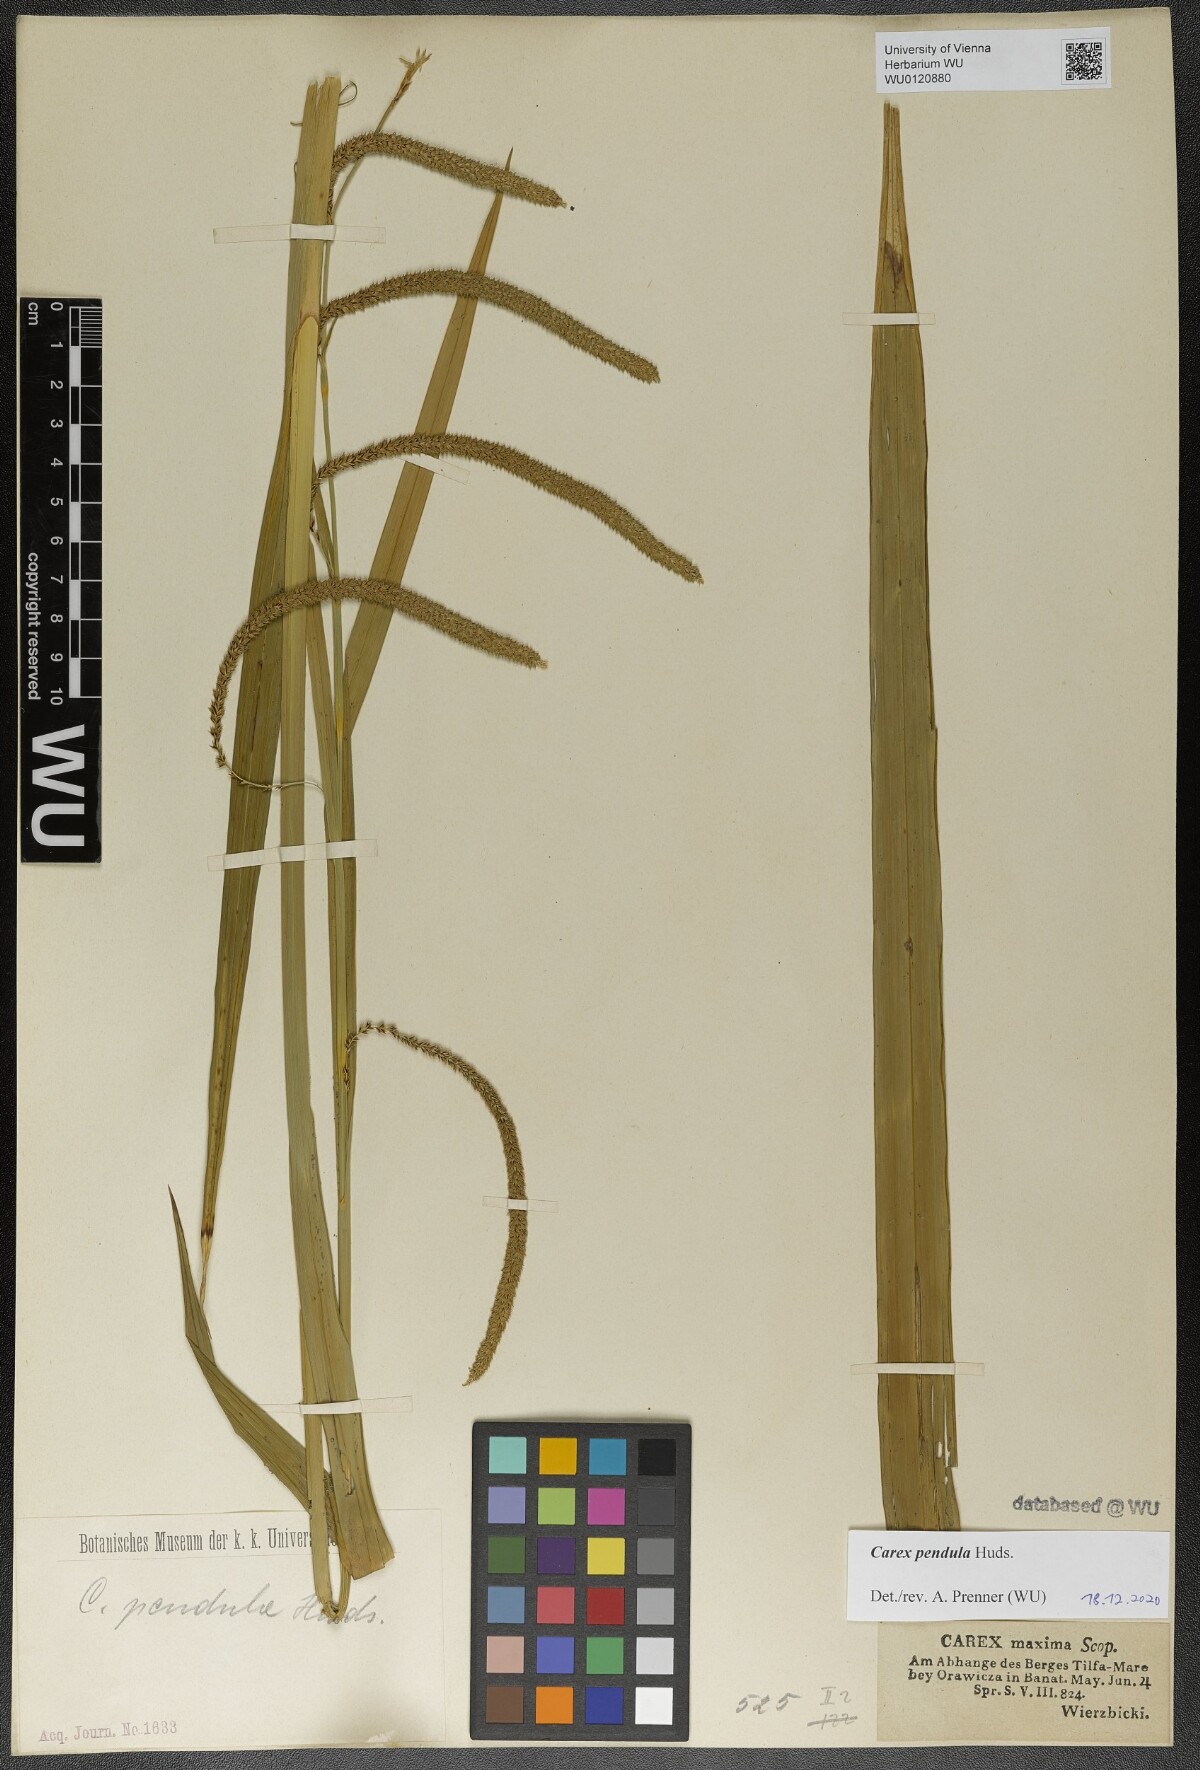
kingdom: Plantae
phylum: Tracheophyta
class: Liliopsida
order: Poales
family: Cyperaceae
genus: Carex
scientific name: Carex pendula
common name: Pendulous sedge
